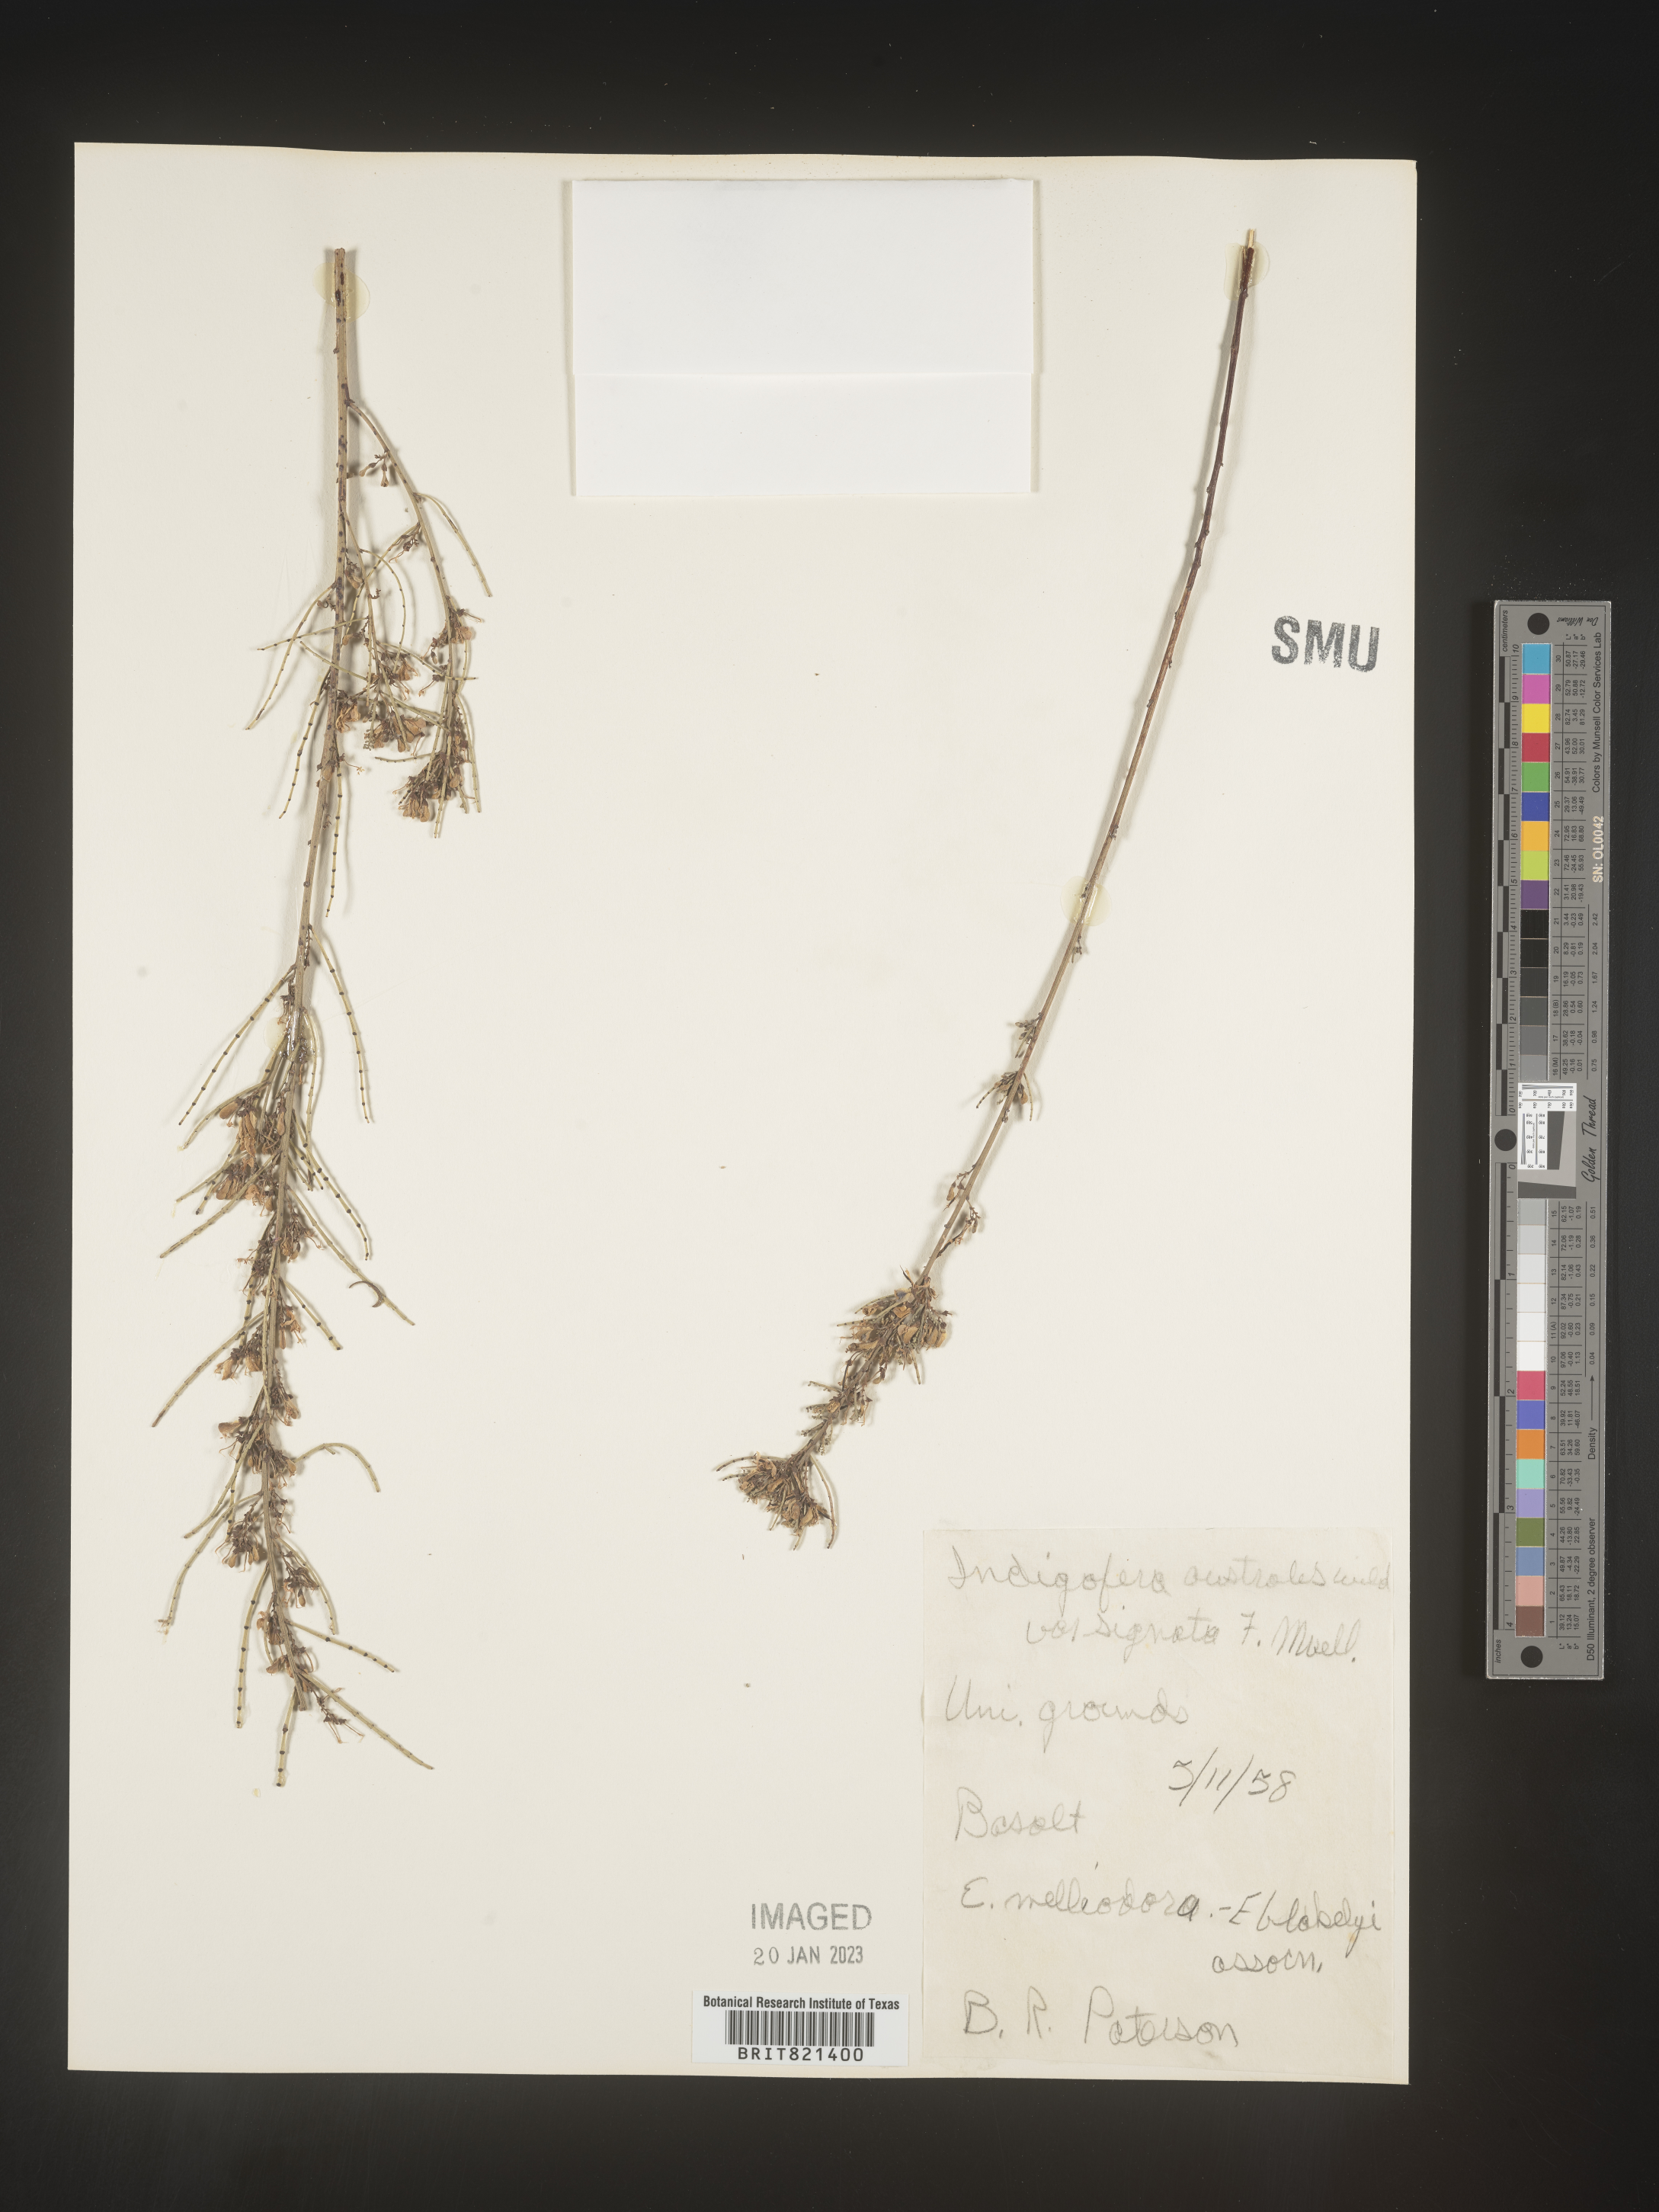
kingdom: Plantae
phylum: Tracheophyta
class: Magnoliopsida
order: Fabales
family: Fabaceae
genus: Indigofera
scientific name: Indigofera
